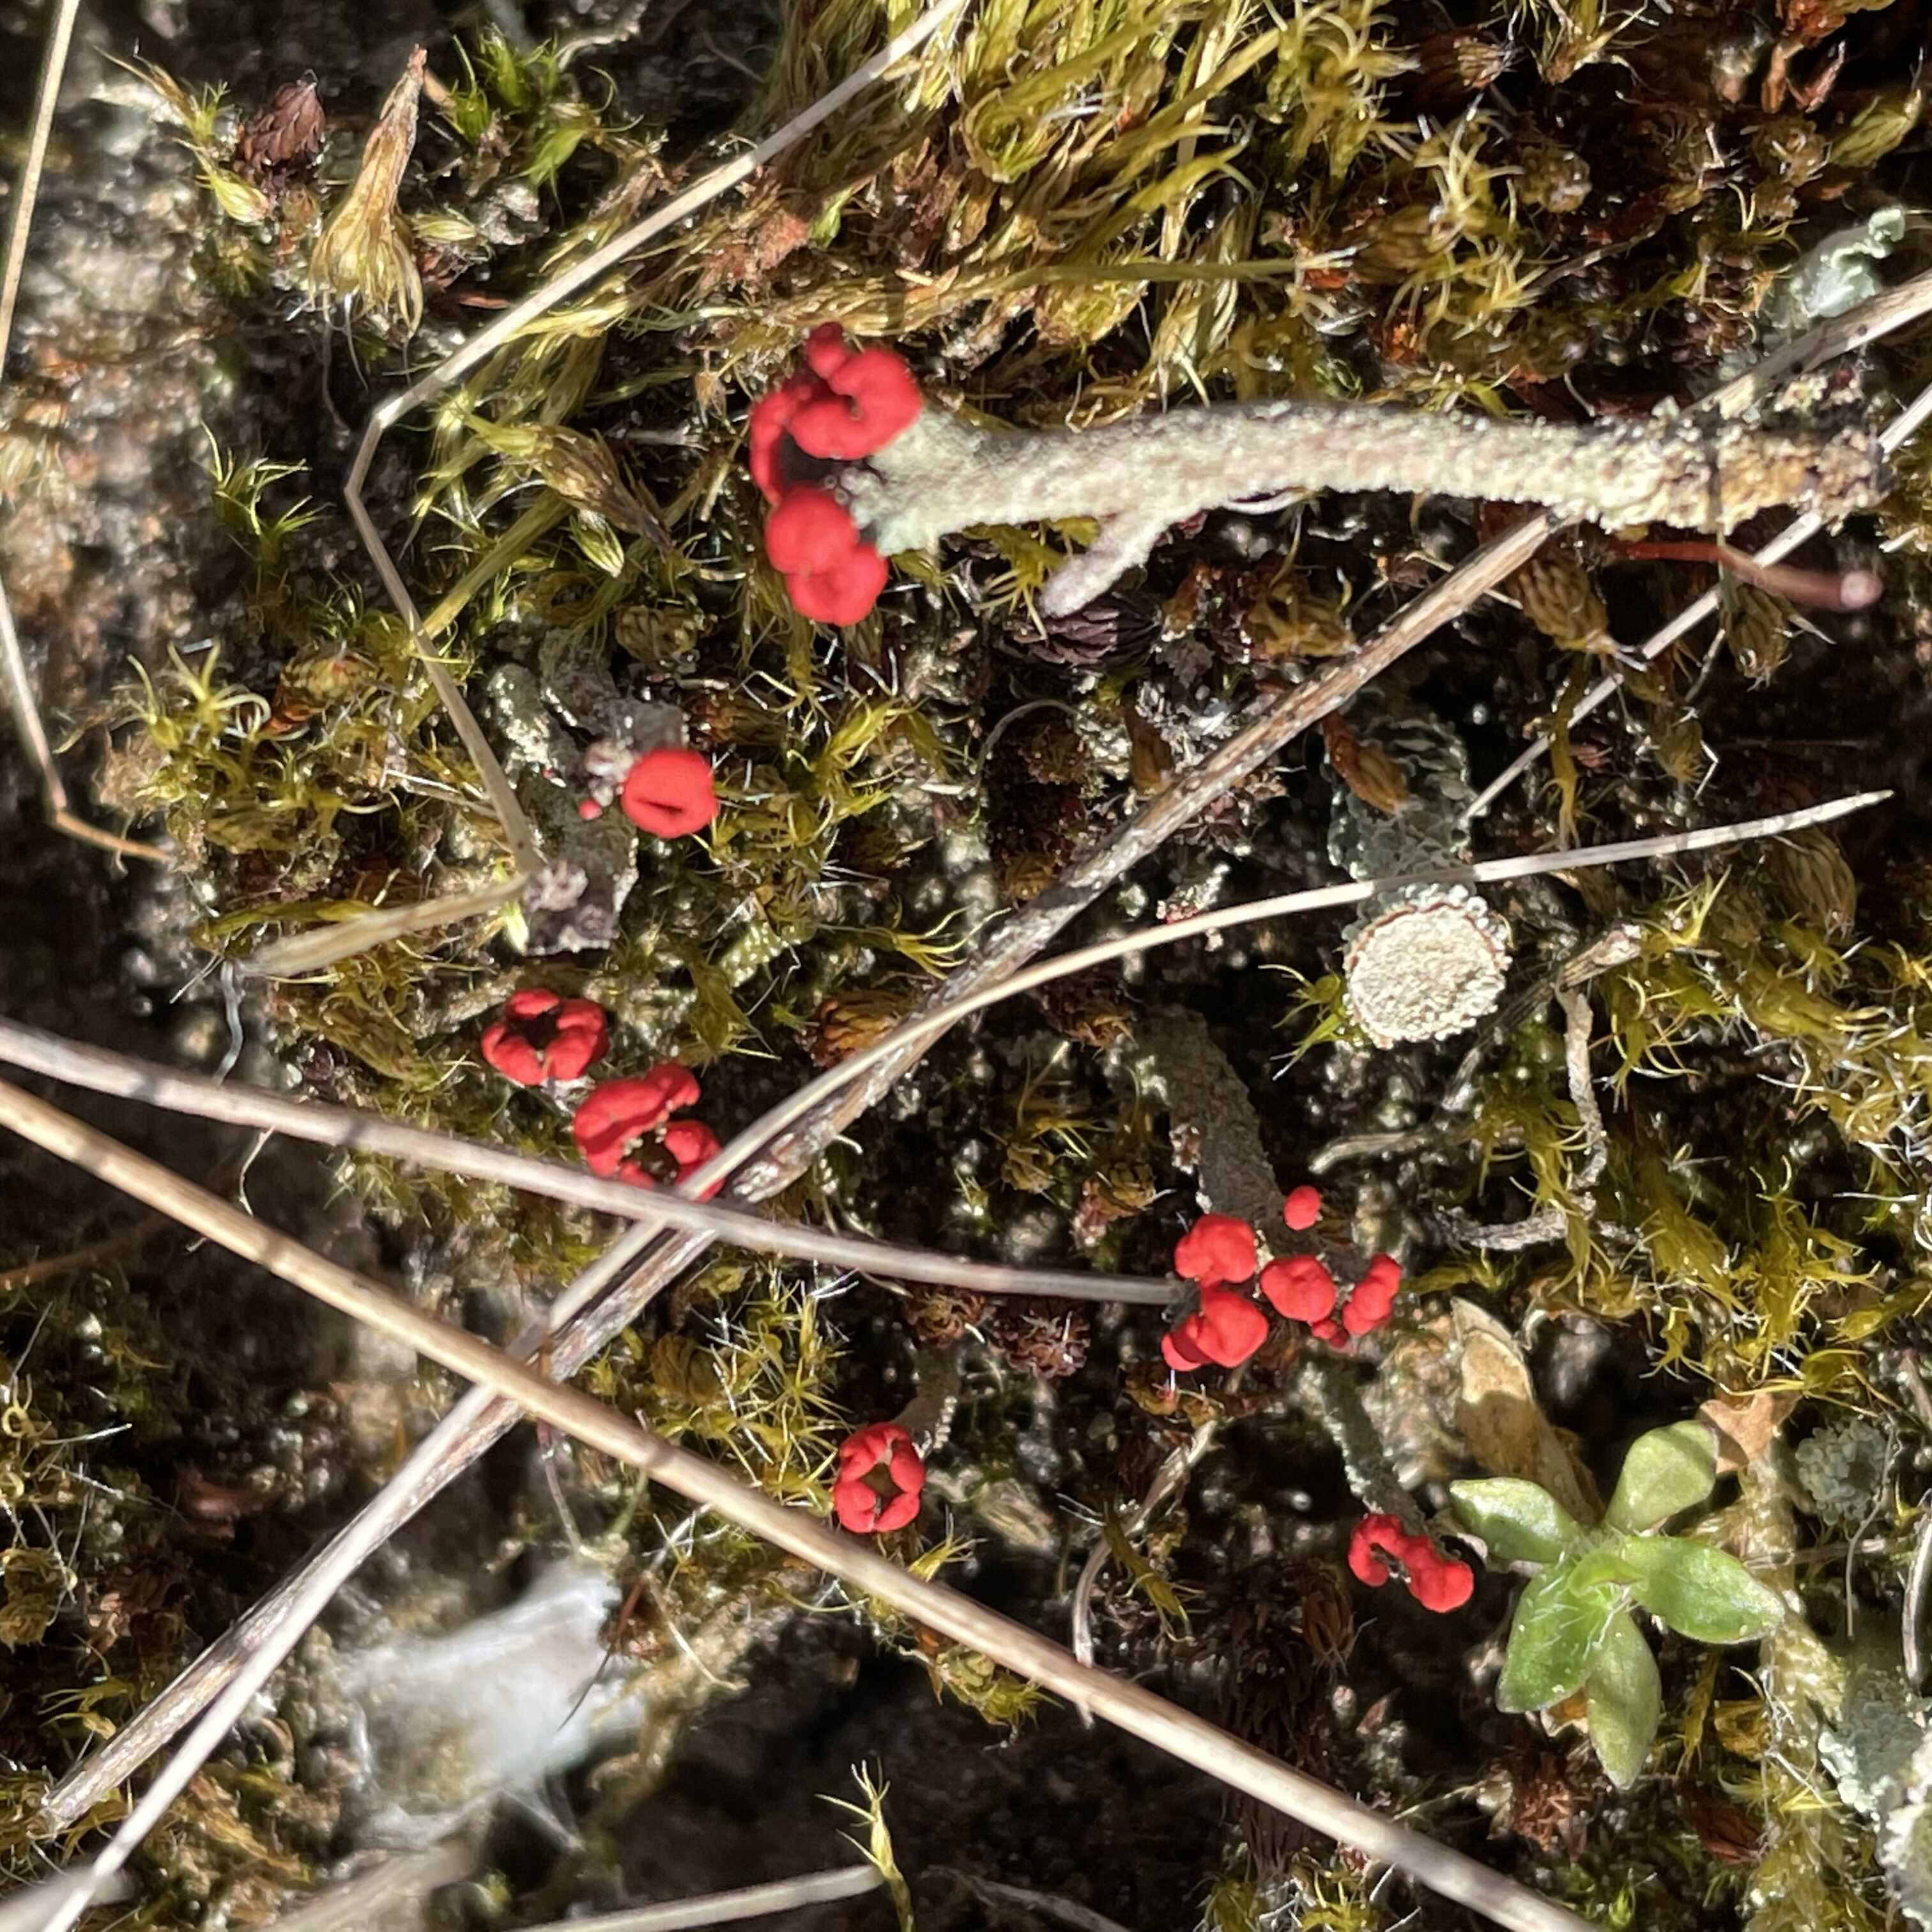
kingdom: Fungi
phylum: Ascomycota
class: Lecanoromycetes
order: Lecanorales
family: Cladoniaceae
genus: Cladonia
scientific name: Cladonia floerkeana
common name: lakrød bægerlav
